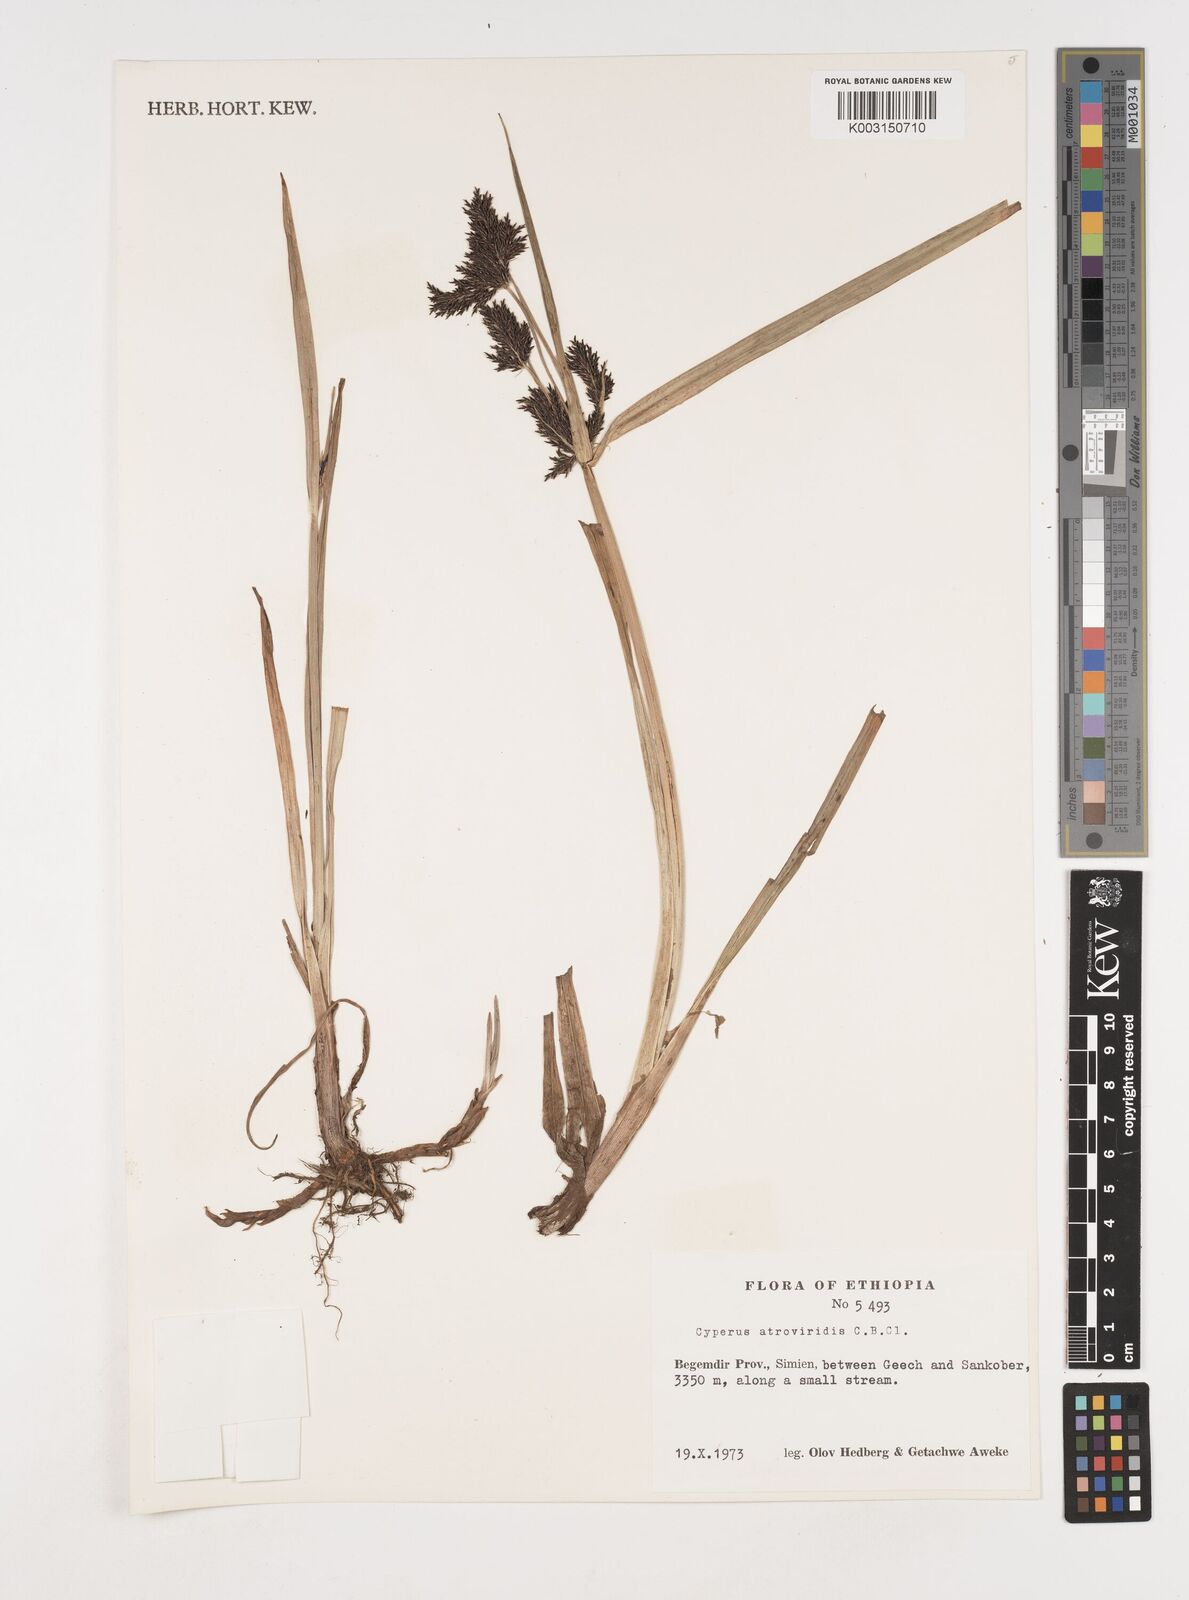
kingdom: Plantae
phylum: Tracheophyta
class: Liliopsida
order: Poales
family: Cyperaceae
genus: Cyperus
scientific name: Cyperus aterrimus
